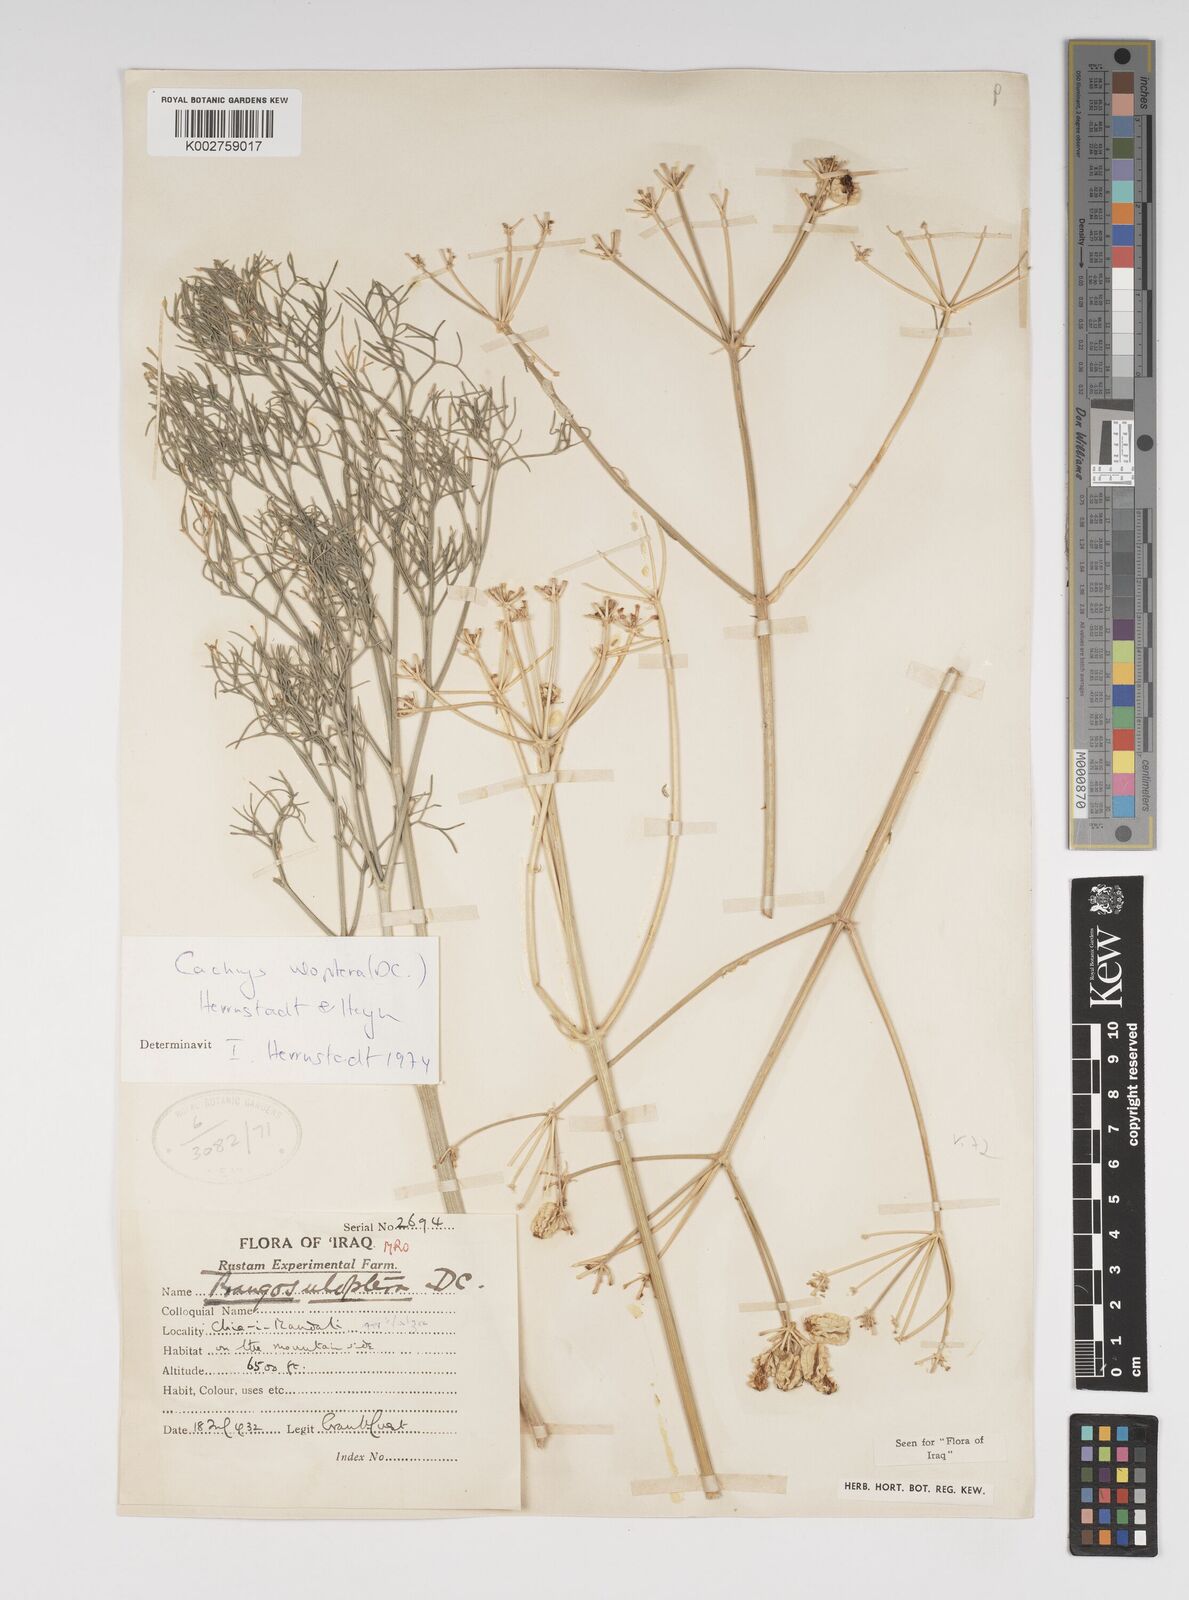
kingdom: Plantae
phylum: Tracheophyta
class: Magnoliopsida
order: Apiales
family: Apiaceae
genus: Prangos
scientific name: Prangos uloptera
